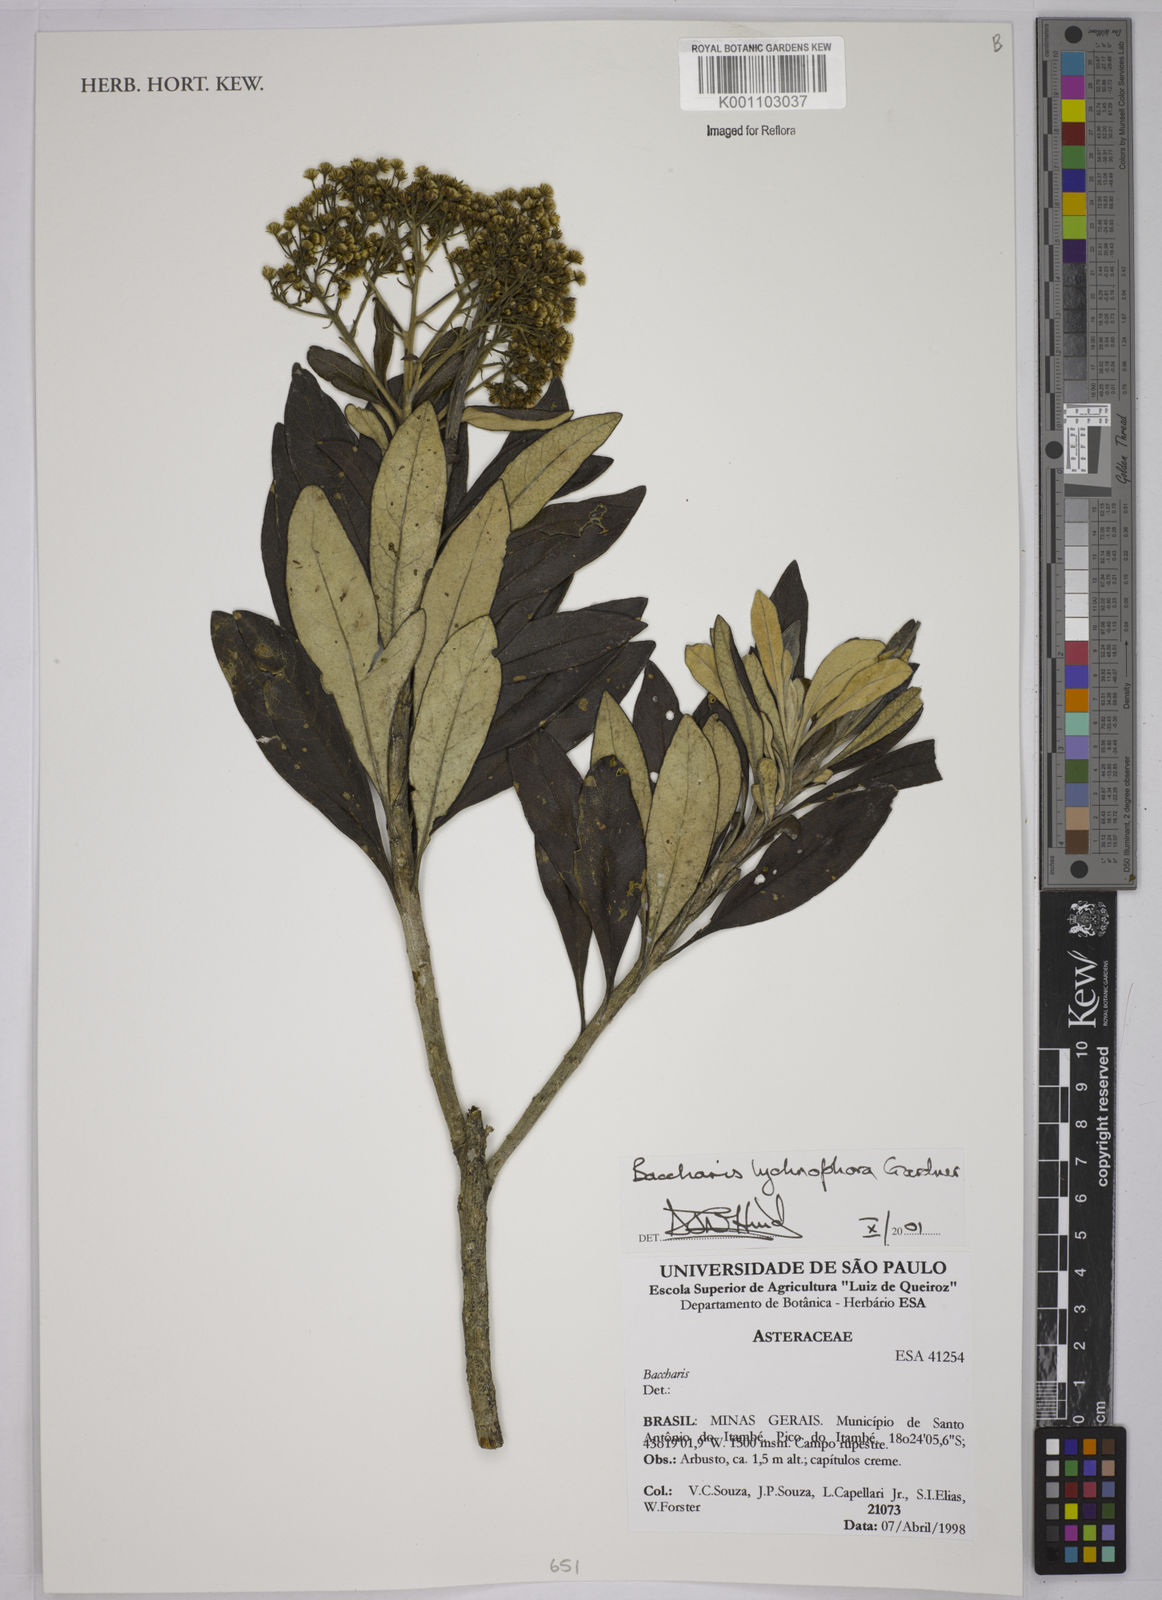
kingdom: Plantae
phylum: Tracheophyta
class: Magnoliopsida
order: Asterales
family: Asteraceae
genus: Baccharis
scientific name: Baccharis lychnophora
